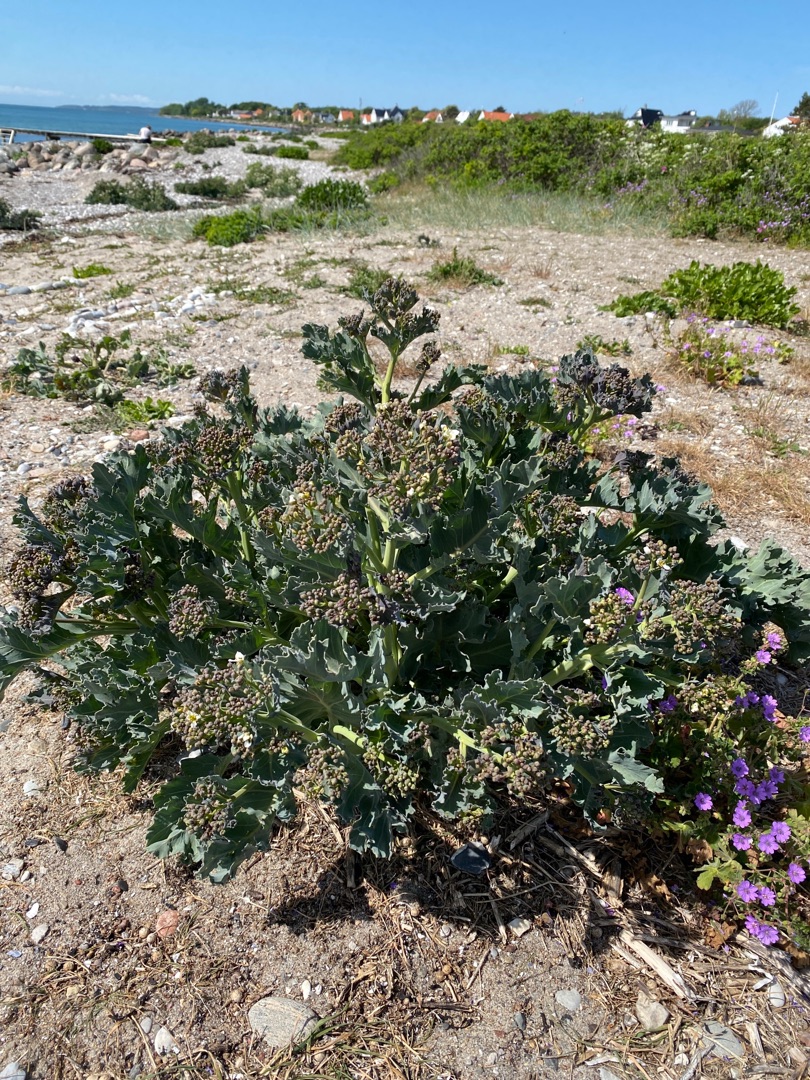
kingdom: Plantae
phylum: Tracheophyta
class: Magnoliopsida
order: Brassicales
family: Brassicaceae
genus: Crambe
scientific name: Crambe maritima
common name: Strandkål
